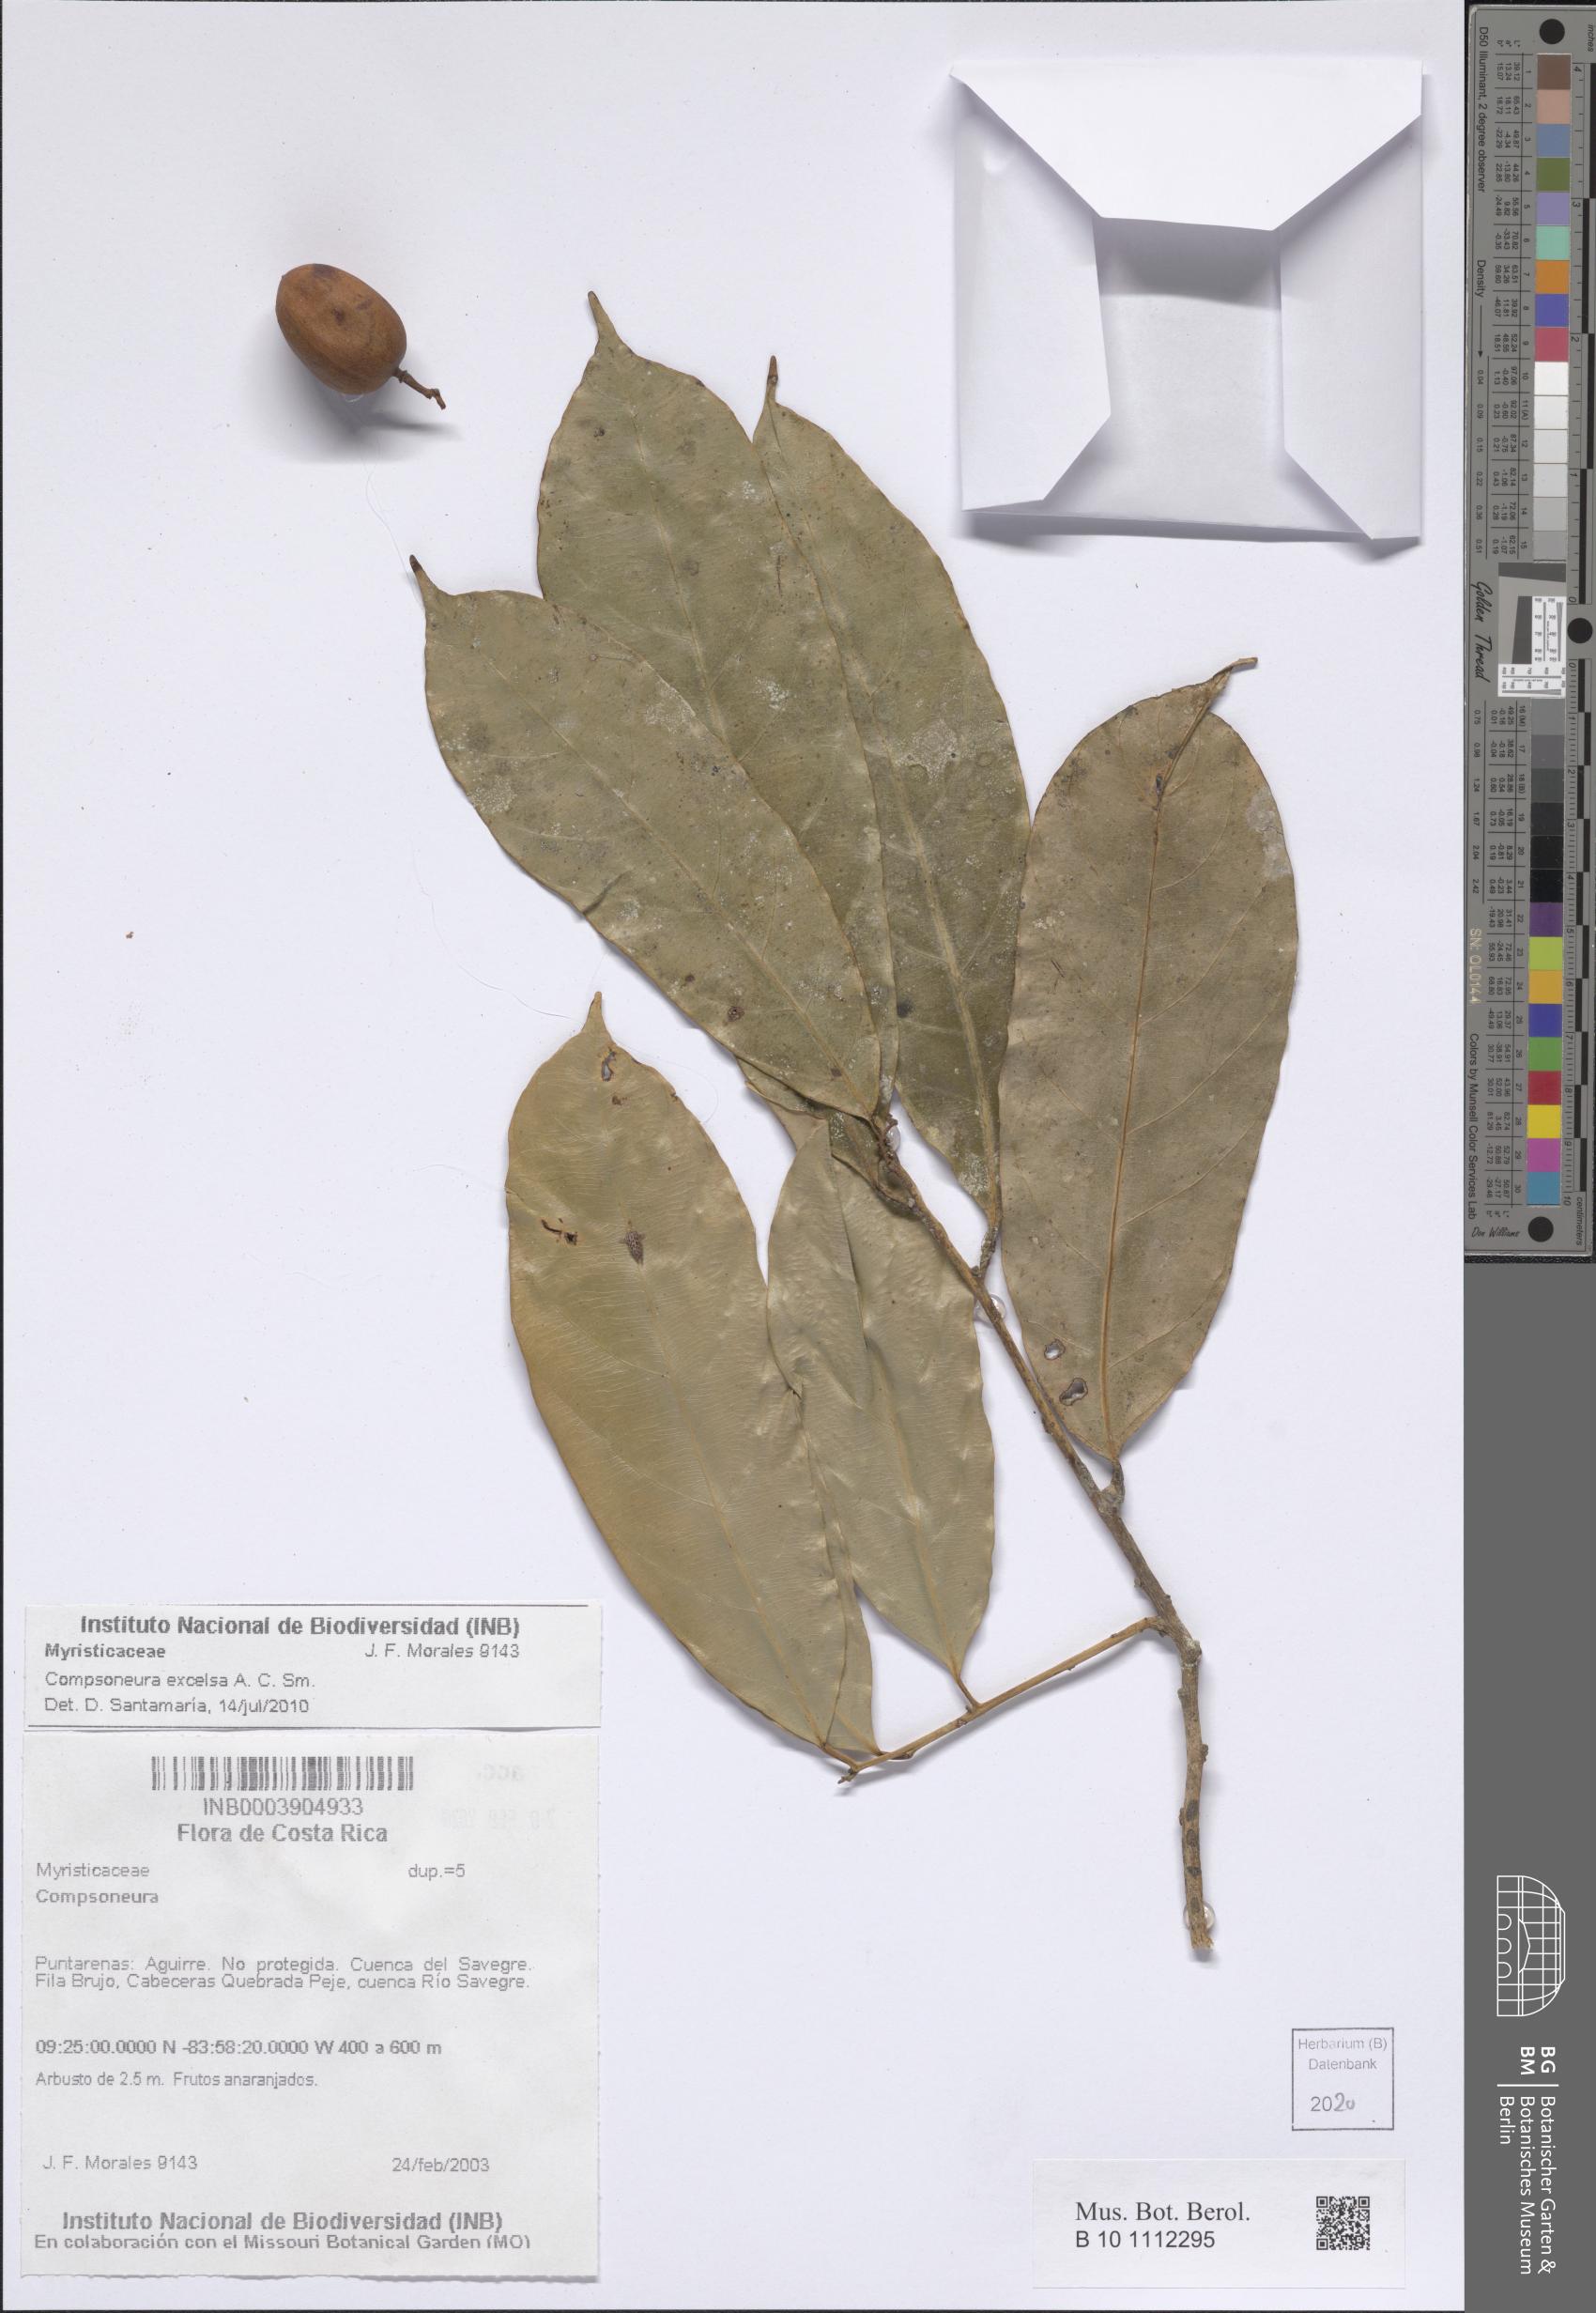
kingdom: Plantae
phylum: Tracheophyta
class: Magnoliopsida
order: Magnoliales
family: Myristicaceae
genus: Compsoneura
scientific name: Compsoneura excelsa
